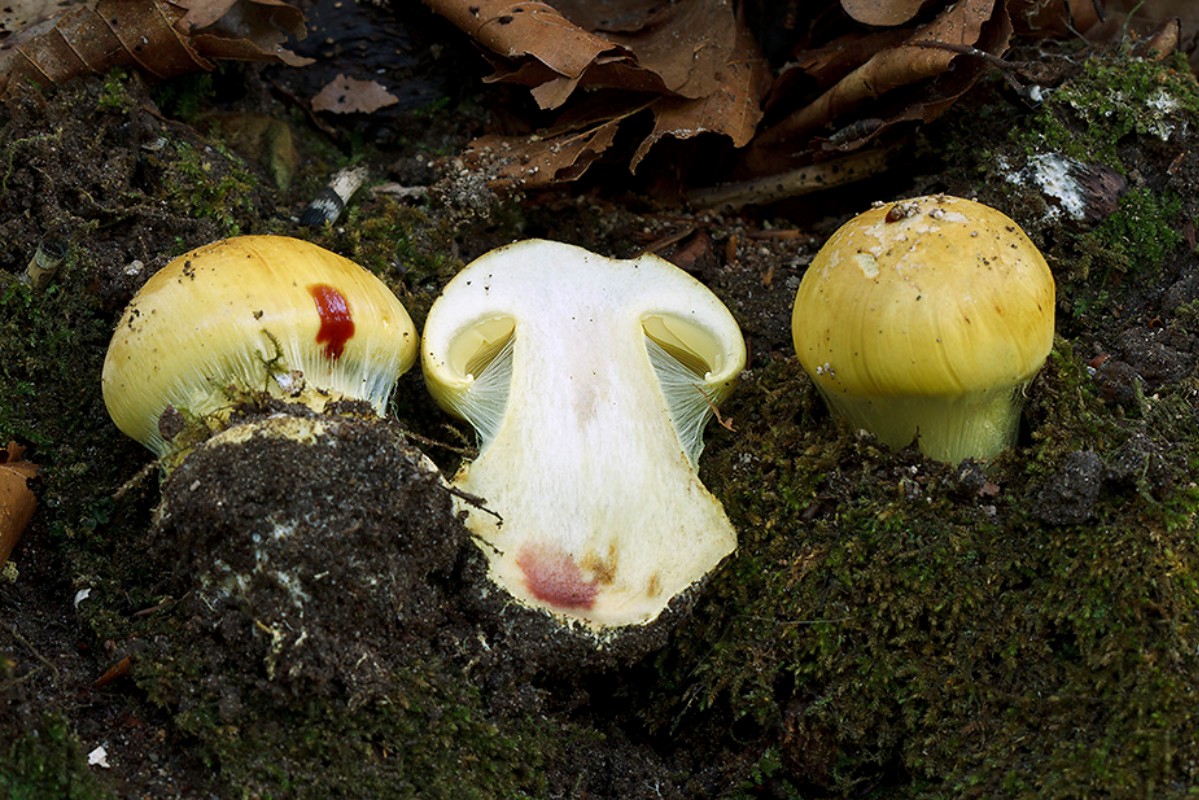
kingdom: Fungi
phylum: Basidiomycota
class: Agaricomycetes
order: Agaricales
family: Cortinariaceae
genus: Calonarius
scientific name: Calonarius elegantissimus
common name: orangegylden slørhat
